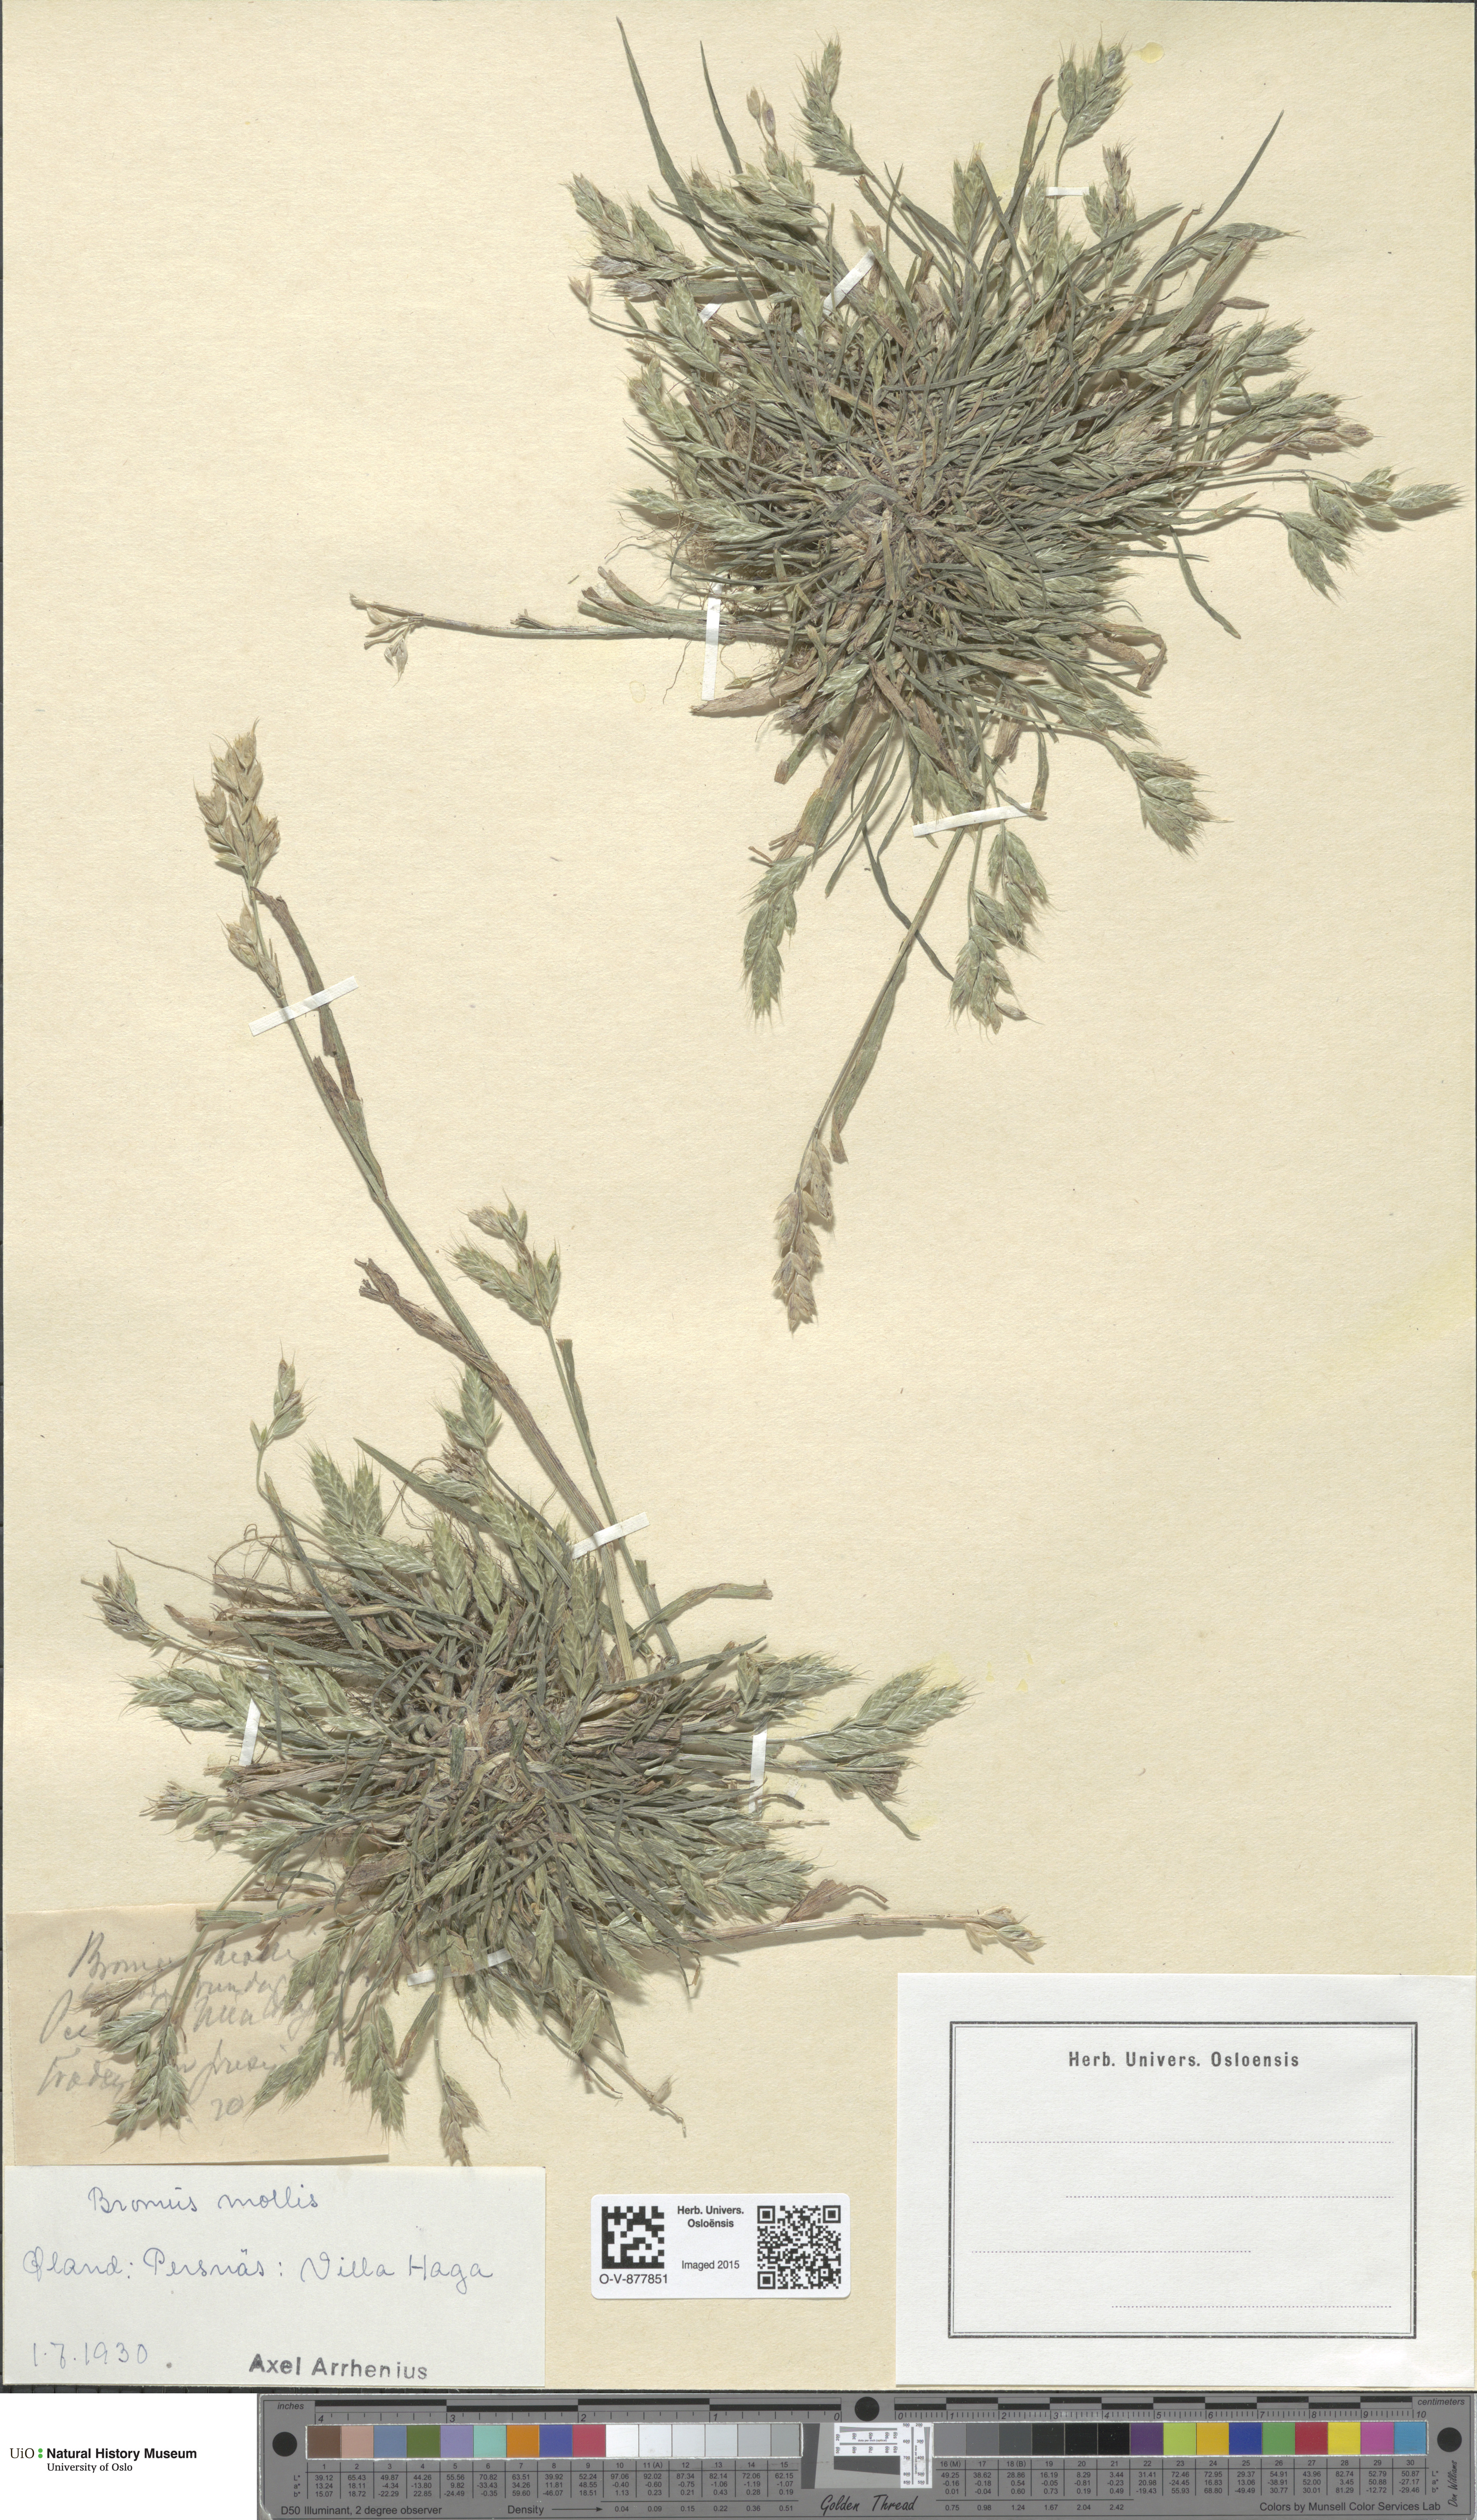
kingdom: Plantae
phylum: Tracheophyta
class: Liliopsida
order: Poales
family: Poaceae
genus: Bromus
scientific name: Bromus hordeaceus
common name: Soft brome
